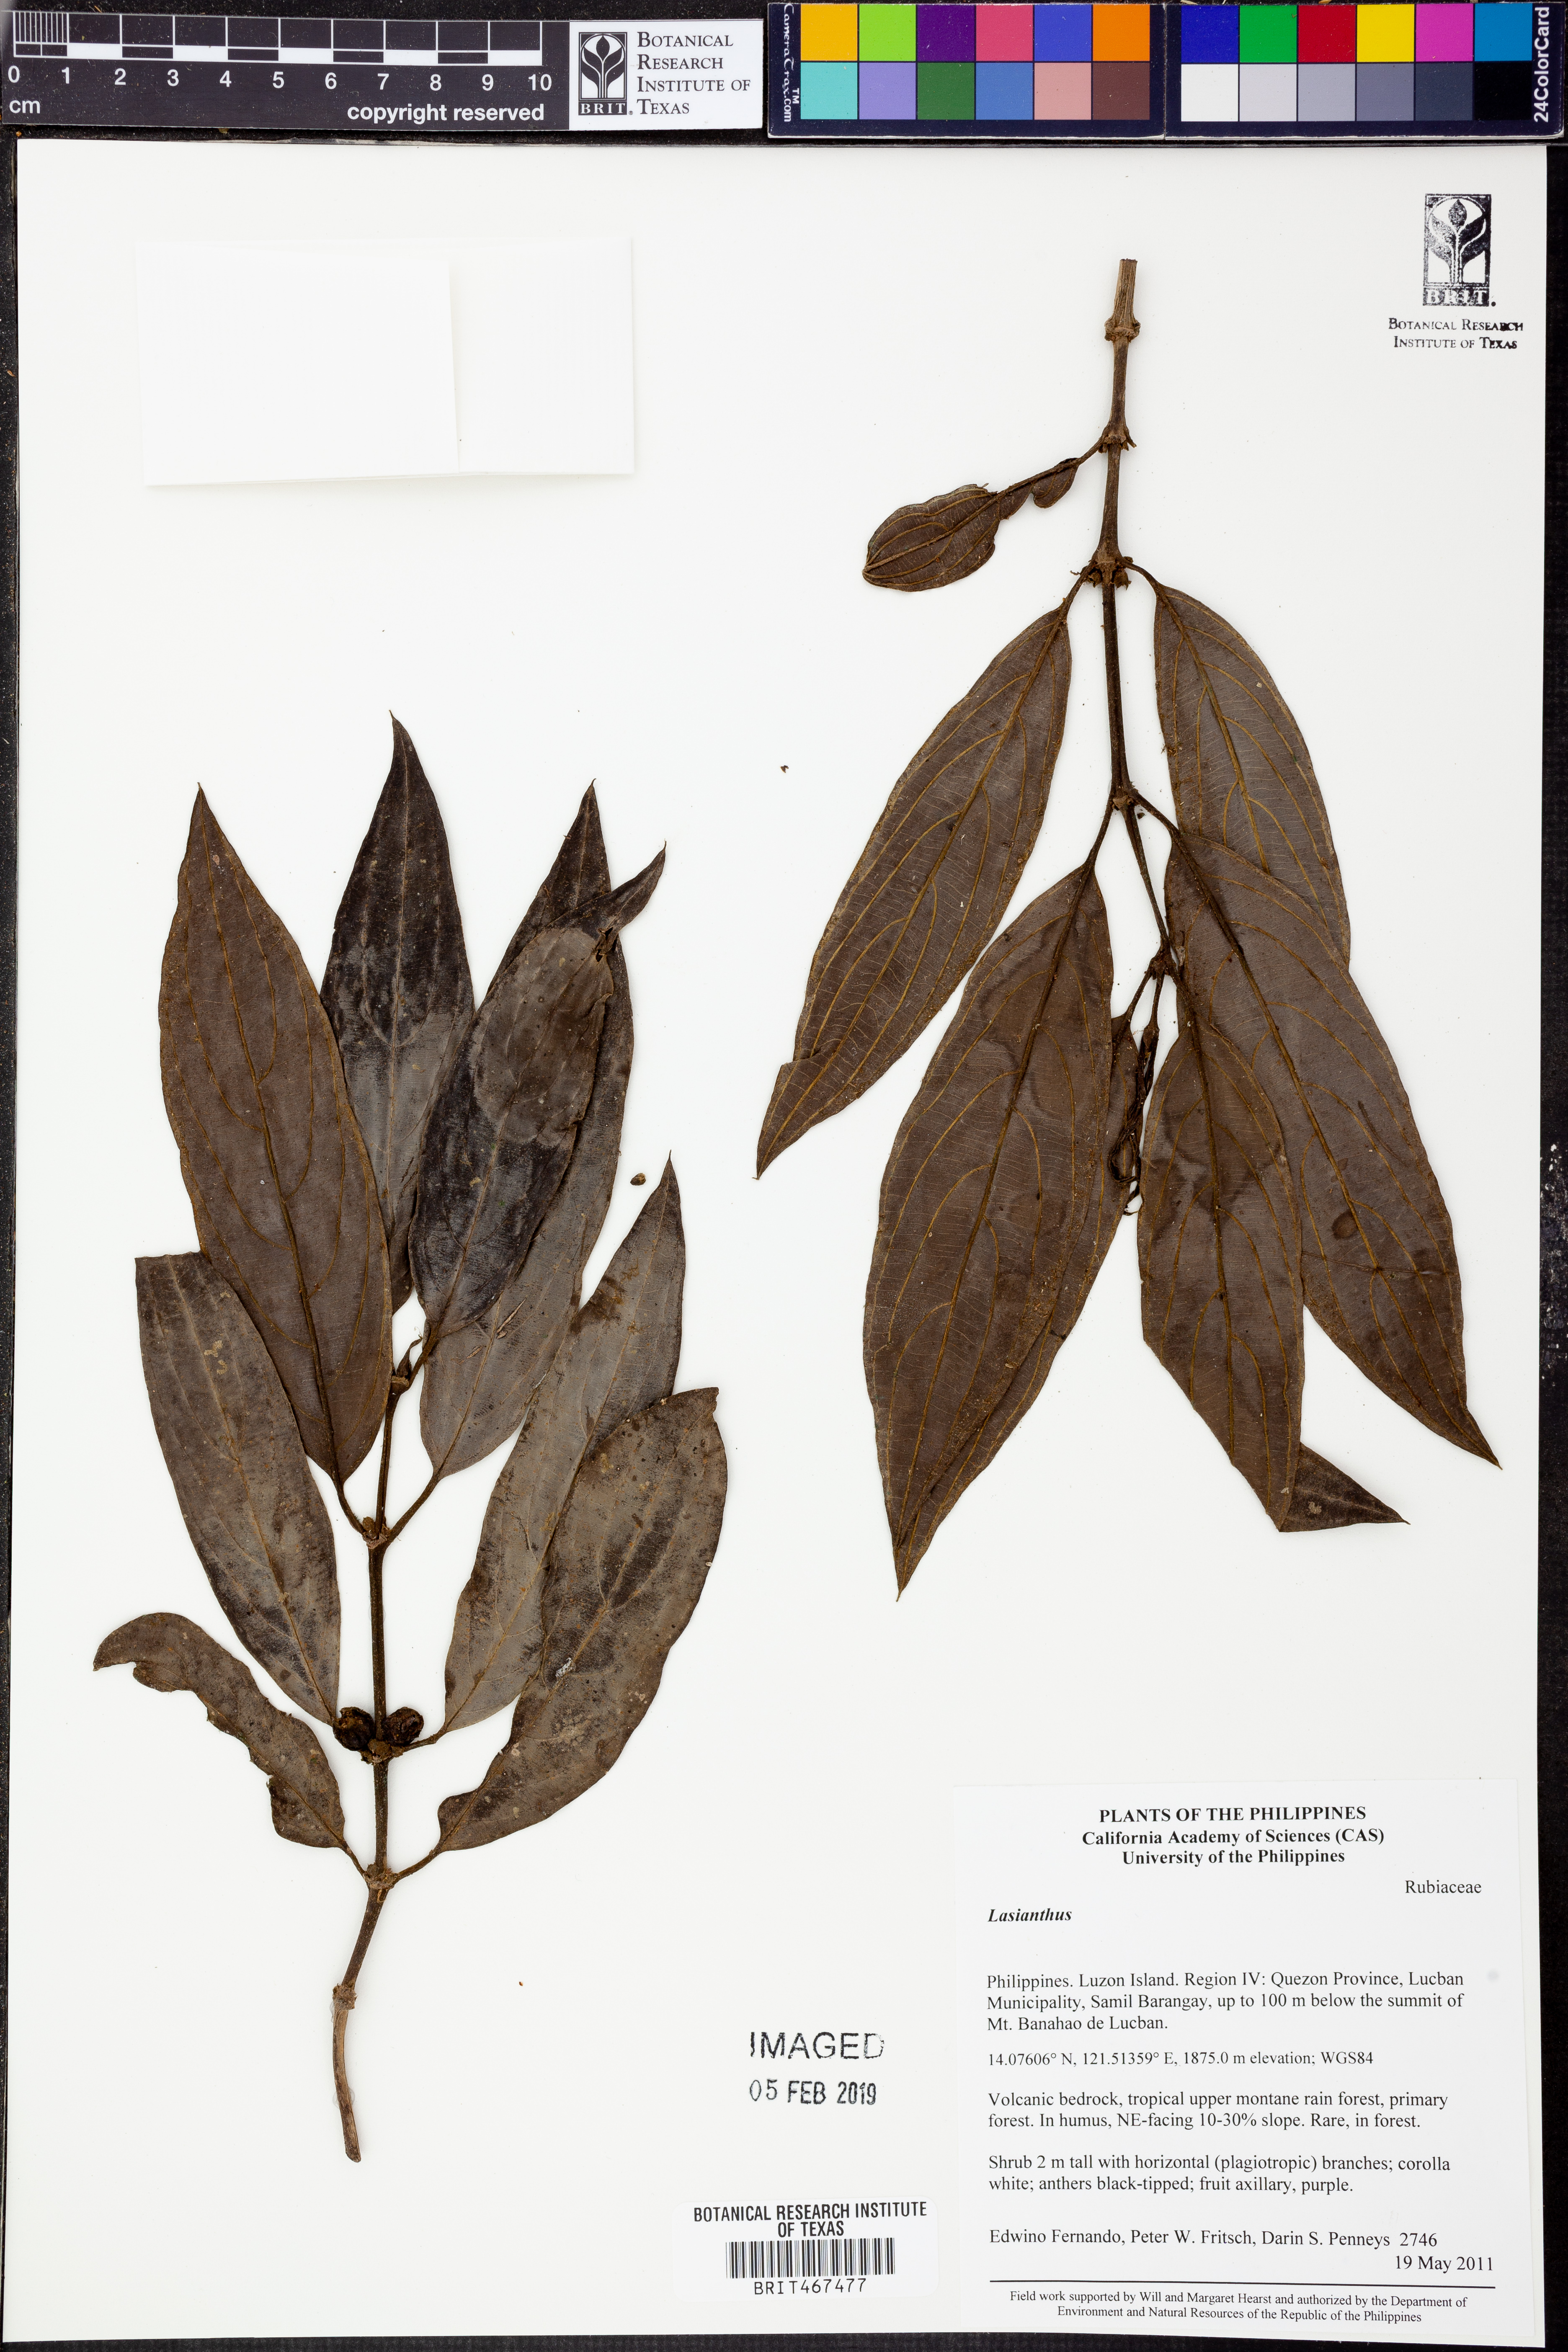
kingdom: Plantae
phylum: Tracheophyta
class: Magnoliopsida
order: Gentianales
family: Rubiaceae
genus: Lasianthus
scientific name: Lasianthus
